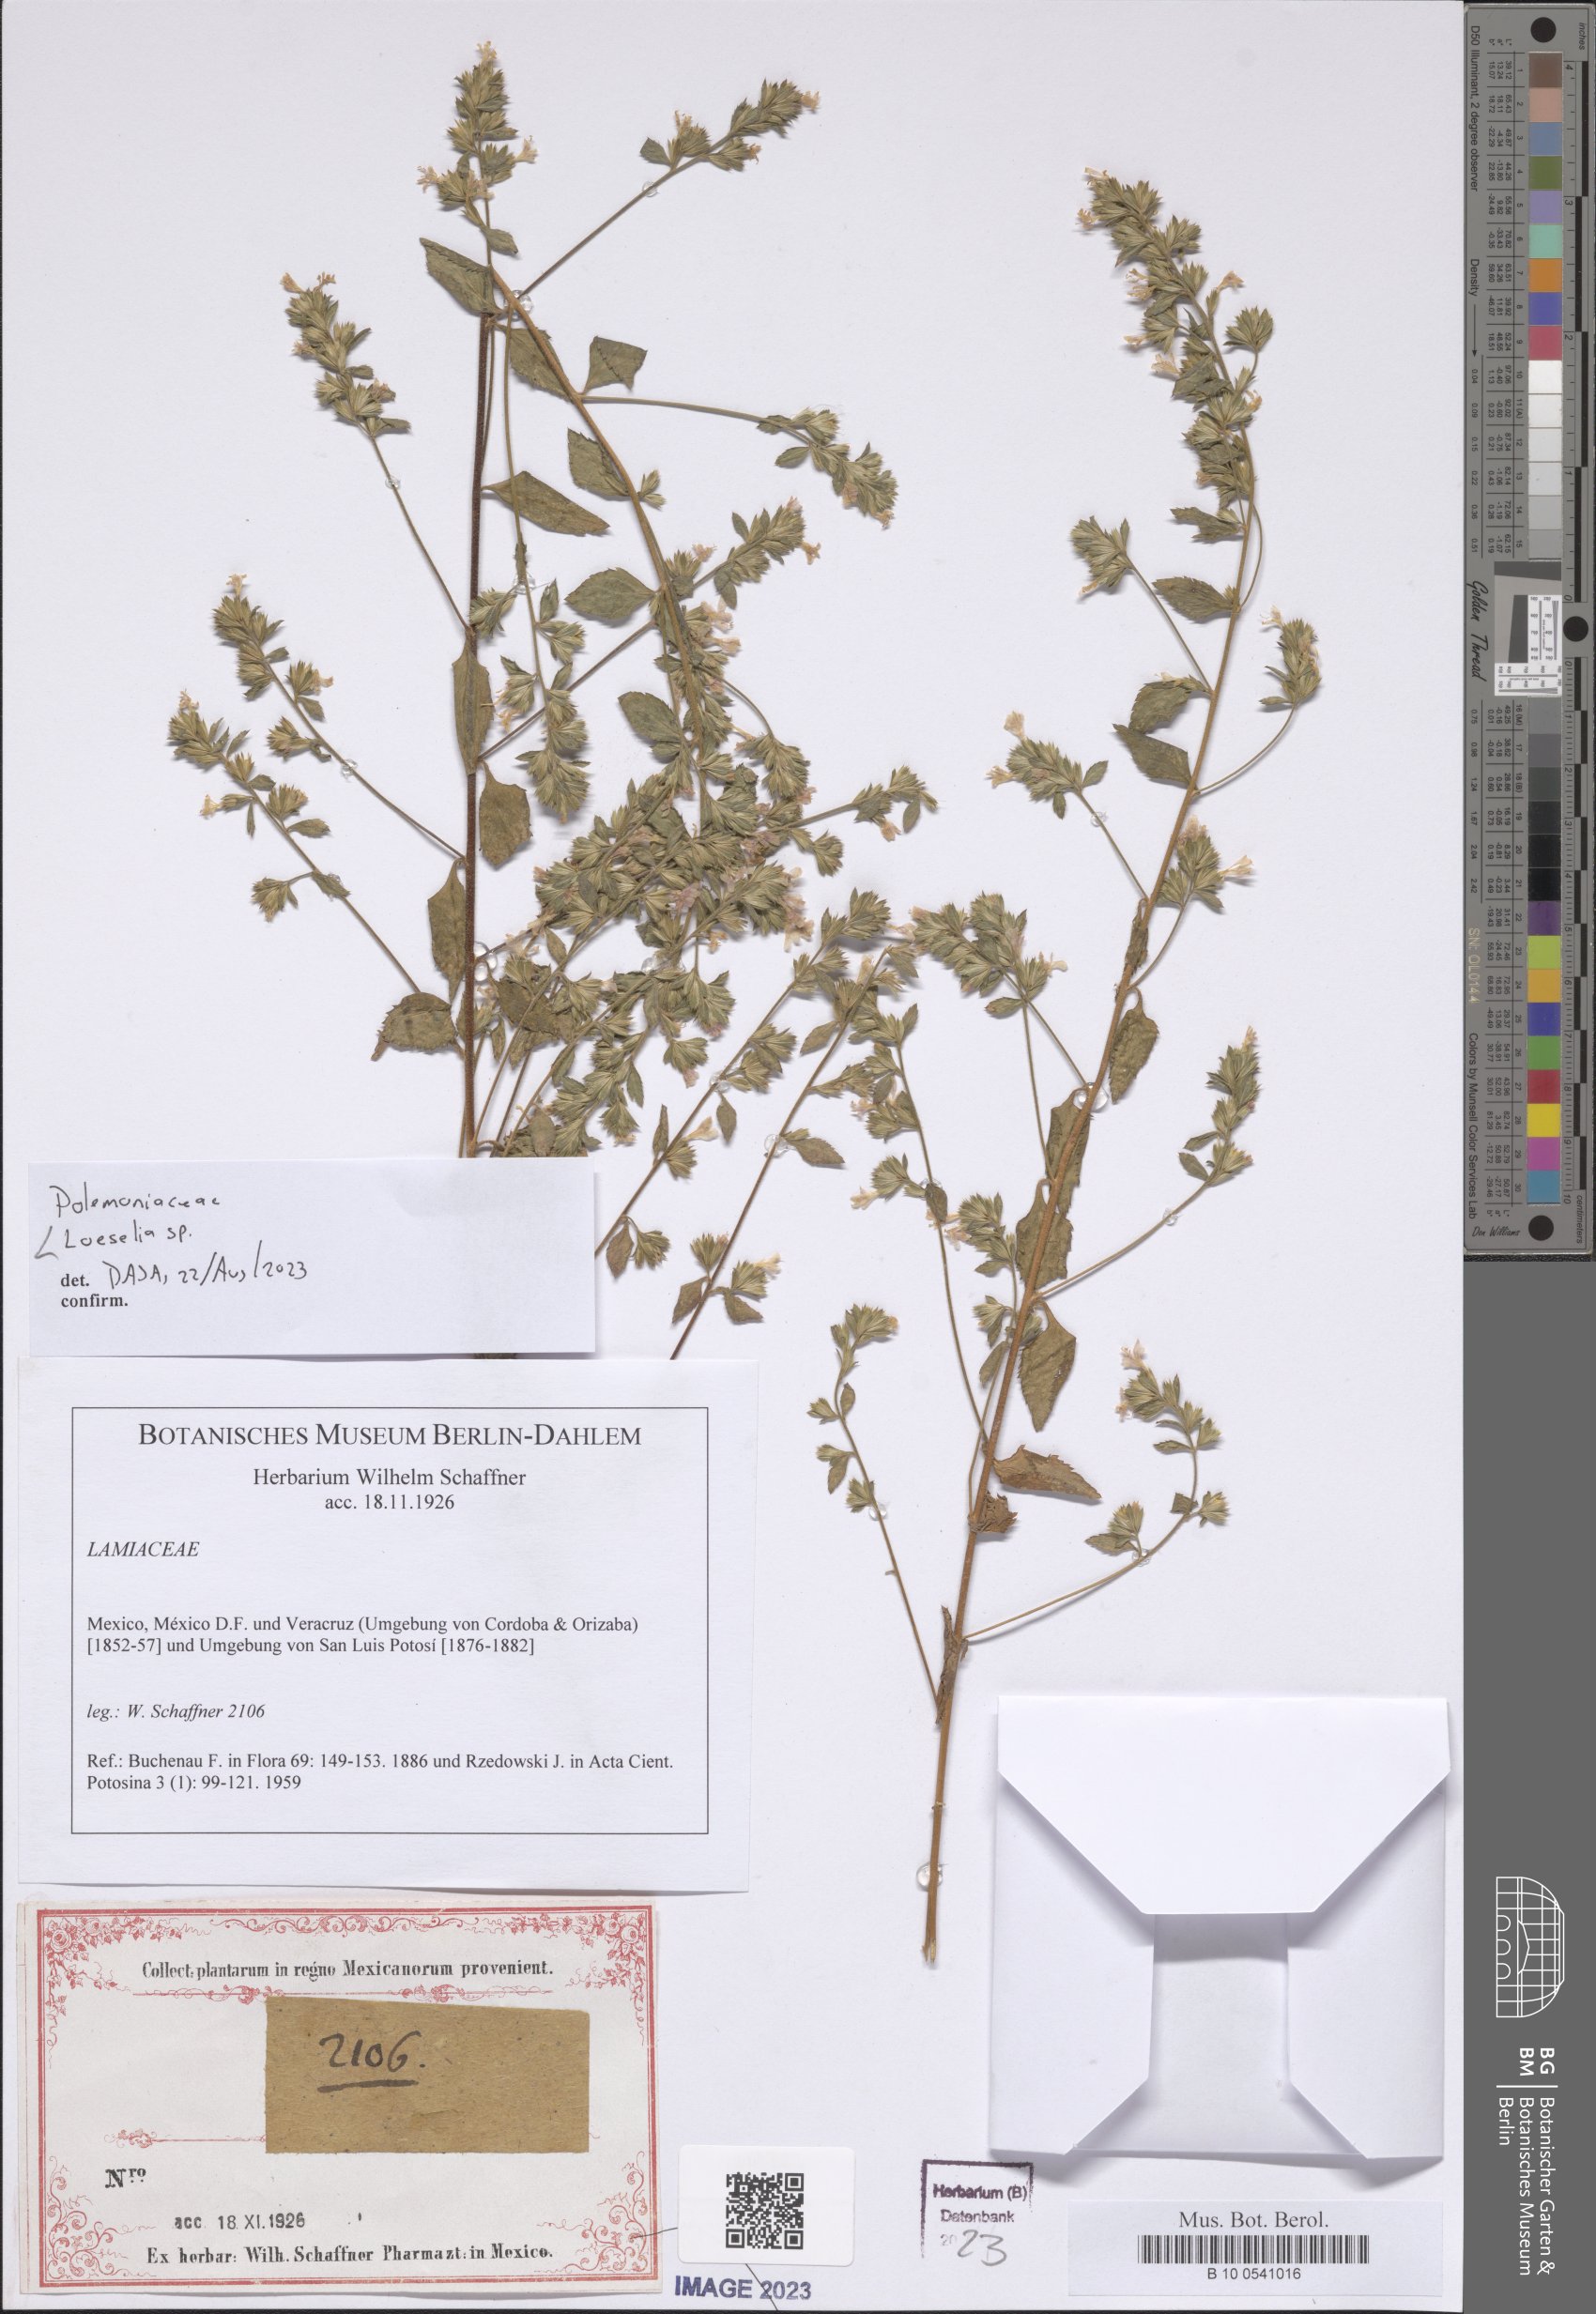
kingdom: Plantae
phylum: Tracheophyta
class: Magnoliopsida
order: Ericales
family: Polemoniaceae
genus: Loeselia
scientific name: Loeselia
